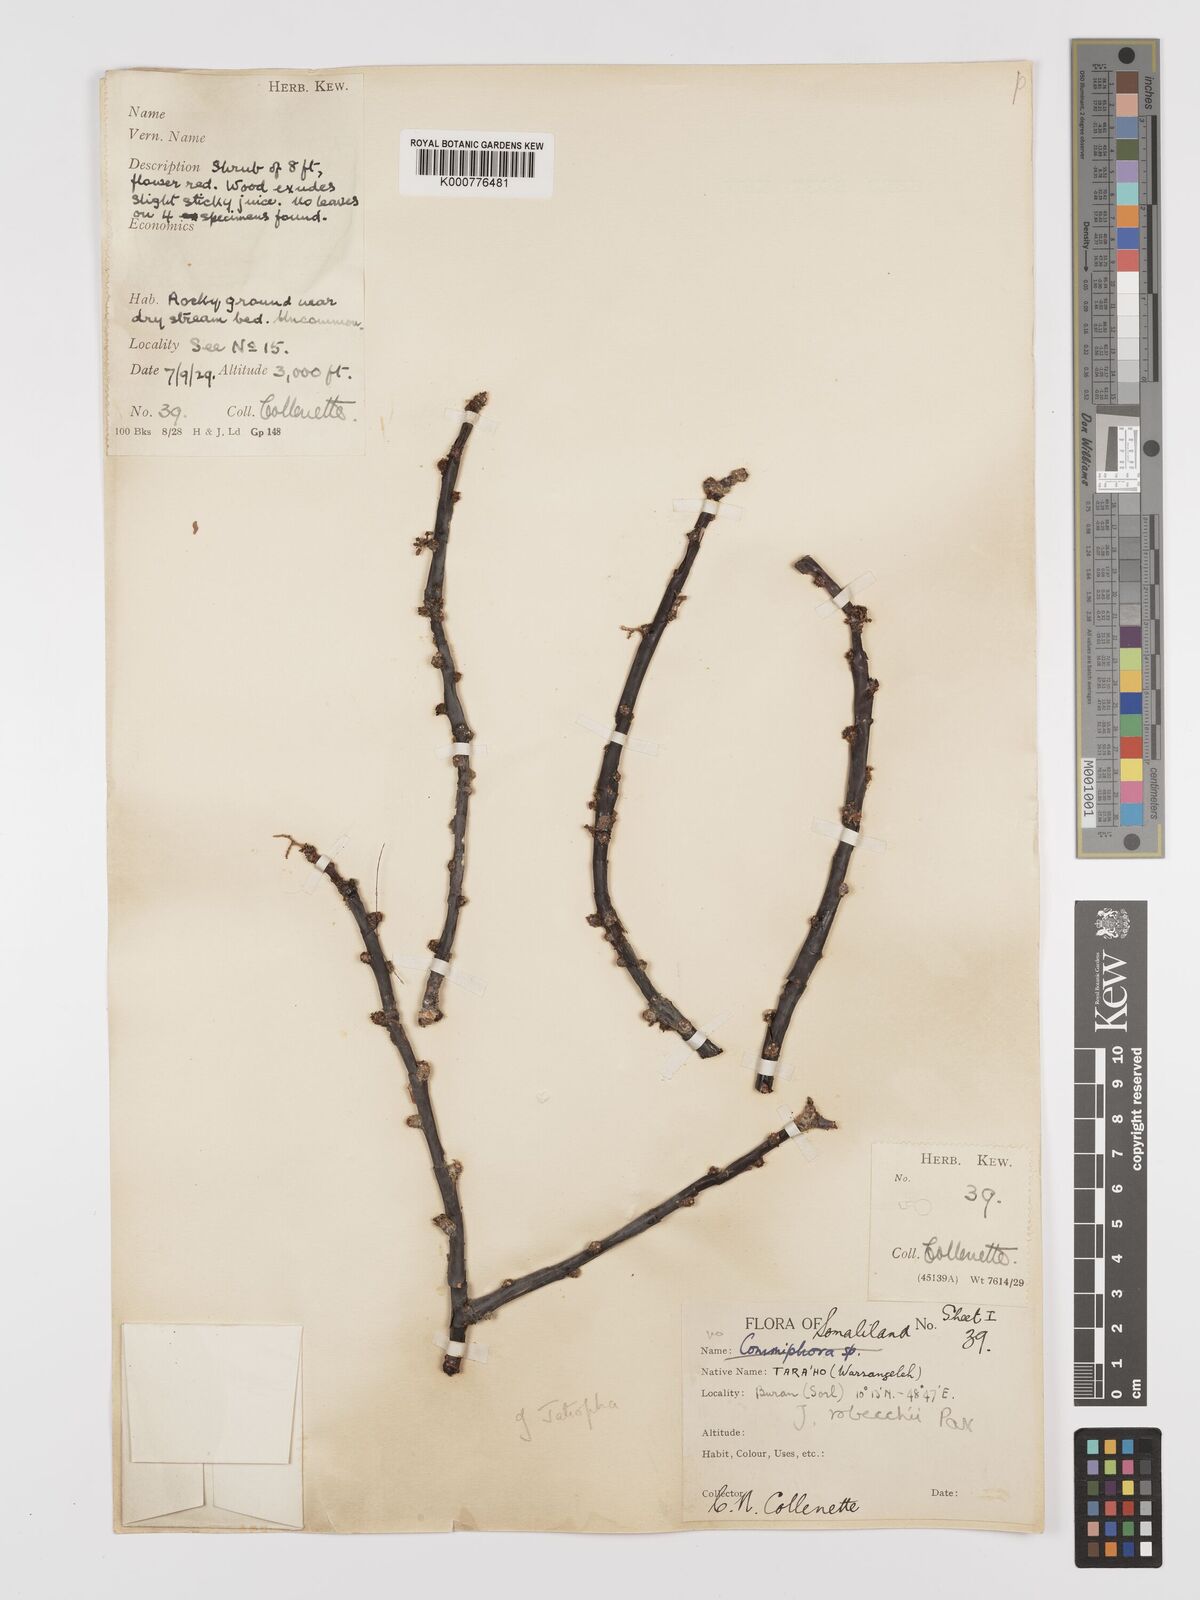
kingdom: Plantae
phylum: Tracheophyta
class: Magnoliopsida
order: Malpighiales
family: Euphorbiaceae
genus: Jatropha
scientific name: Jatropha robecchii
